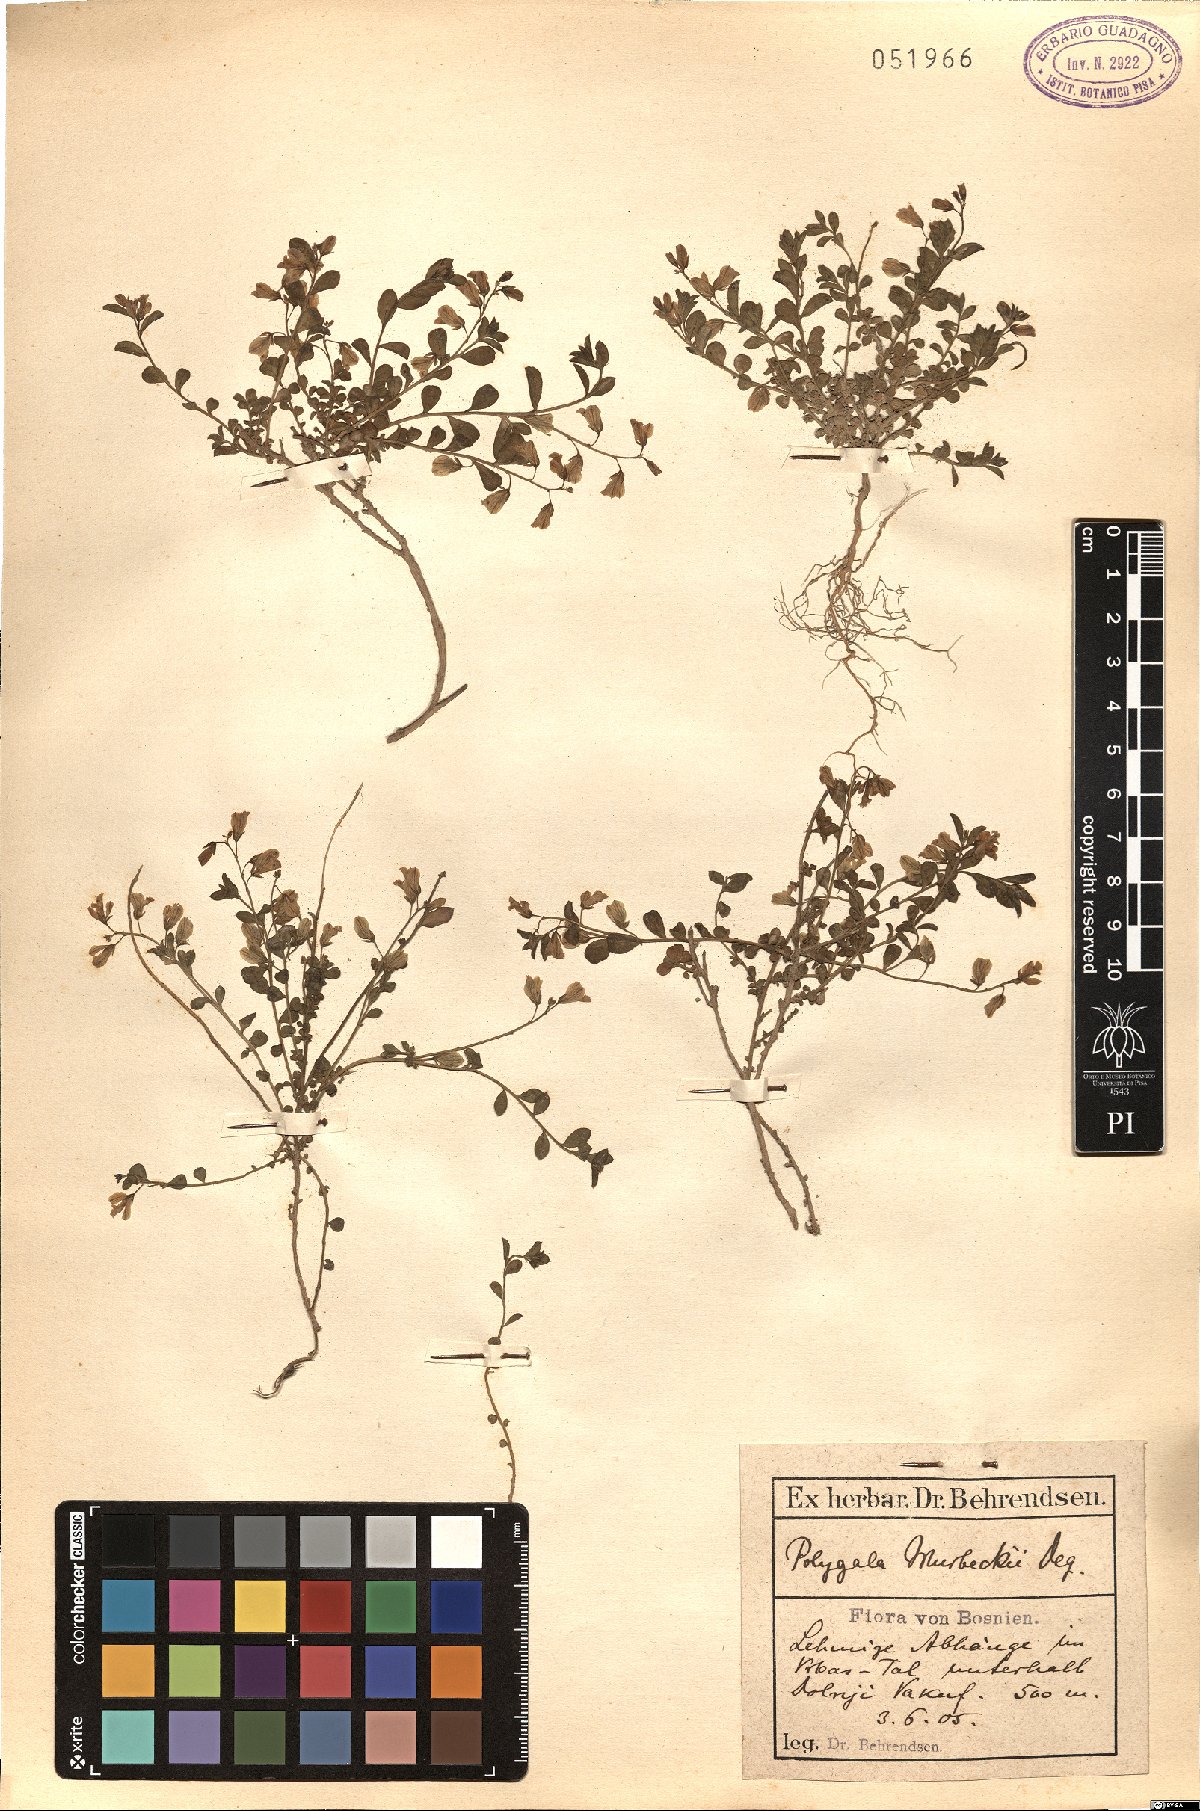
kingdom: Plantae
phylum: Tracheophyta
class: Magnoliopsida
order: Fabales
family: Polygalaceae
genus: Polygala
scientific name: Polygala supina
